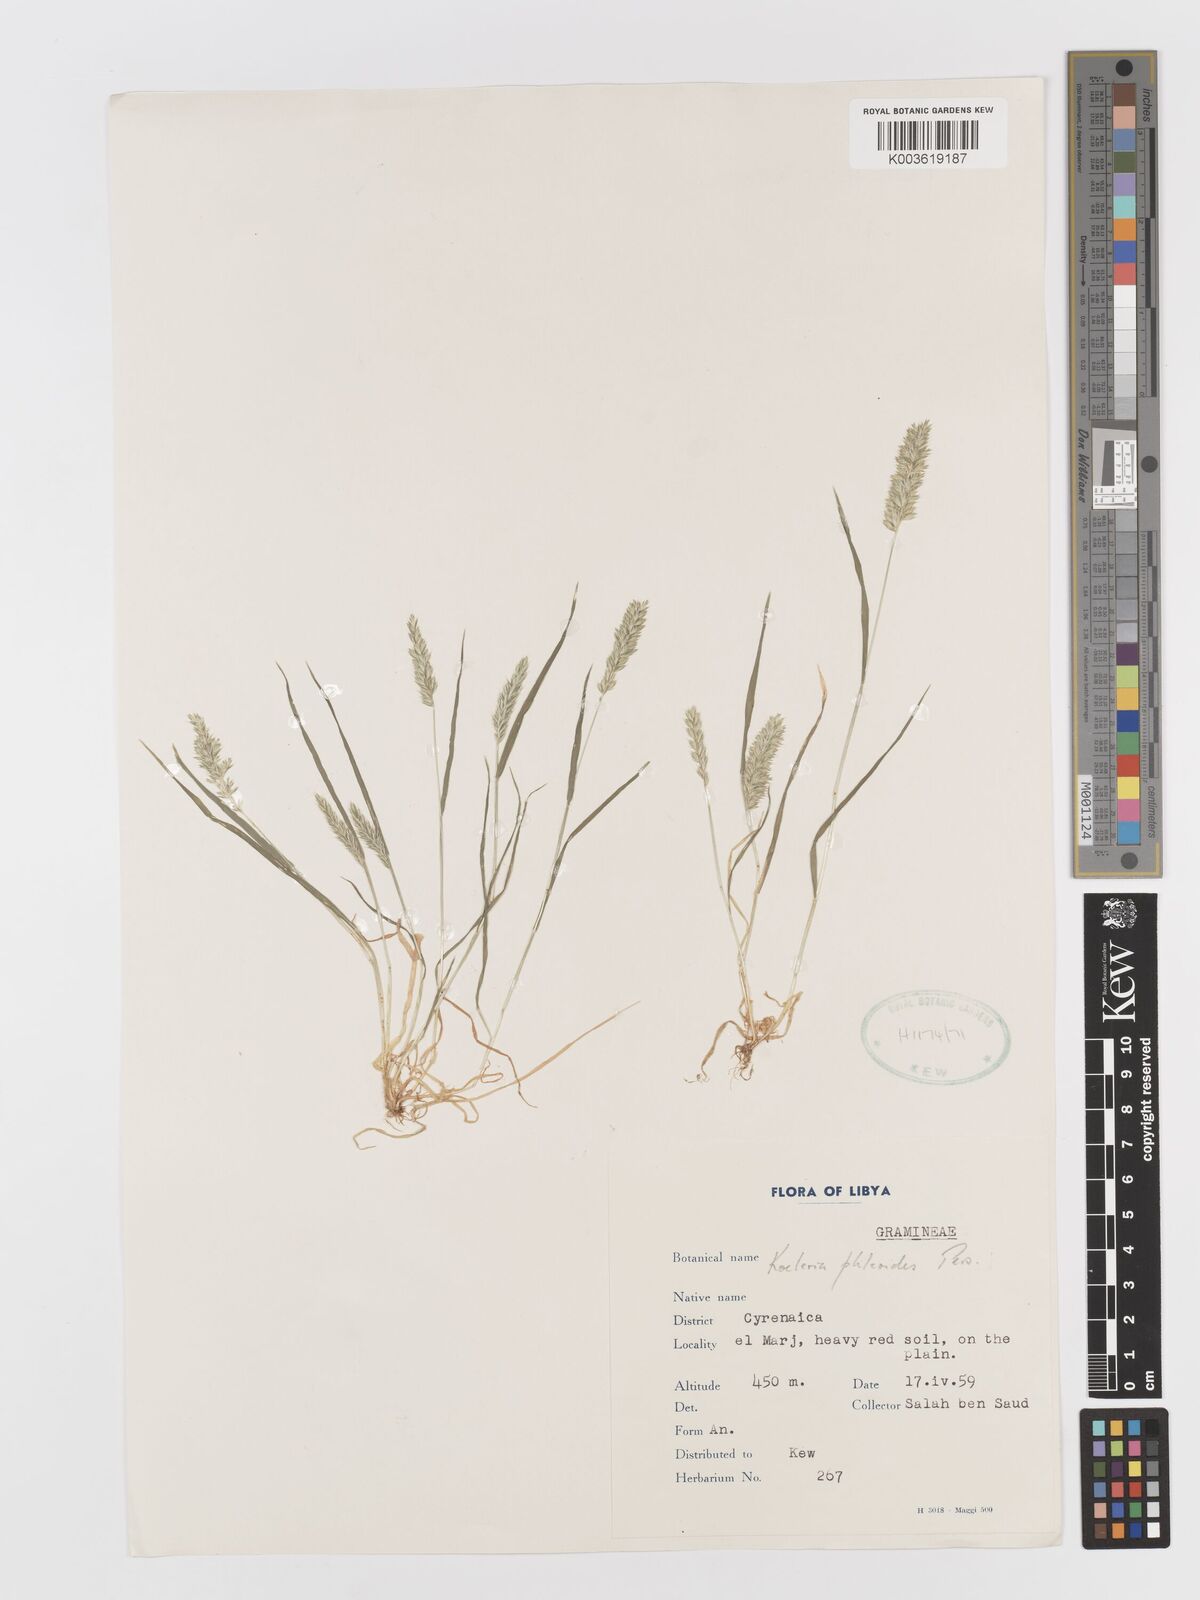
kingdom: Plantae
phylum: Tracheophyta
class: Liliopsida
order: Poales
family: Poaceae
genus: Rostraria
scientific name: Rostraria cristata
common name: Mediterranean hair-grass
